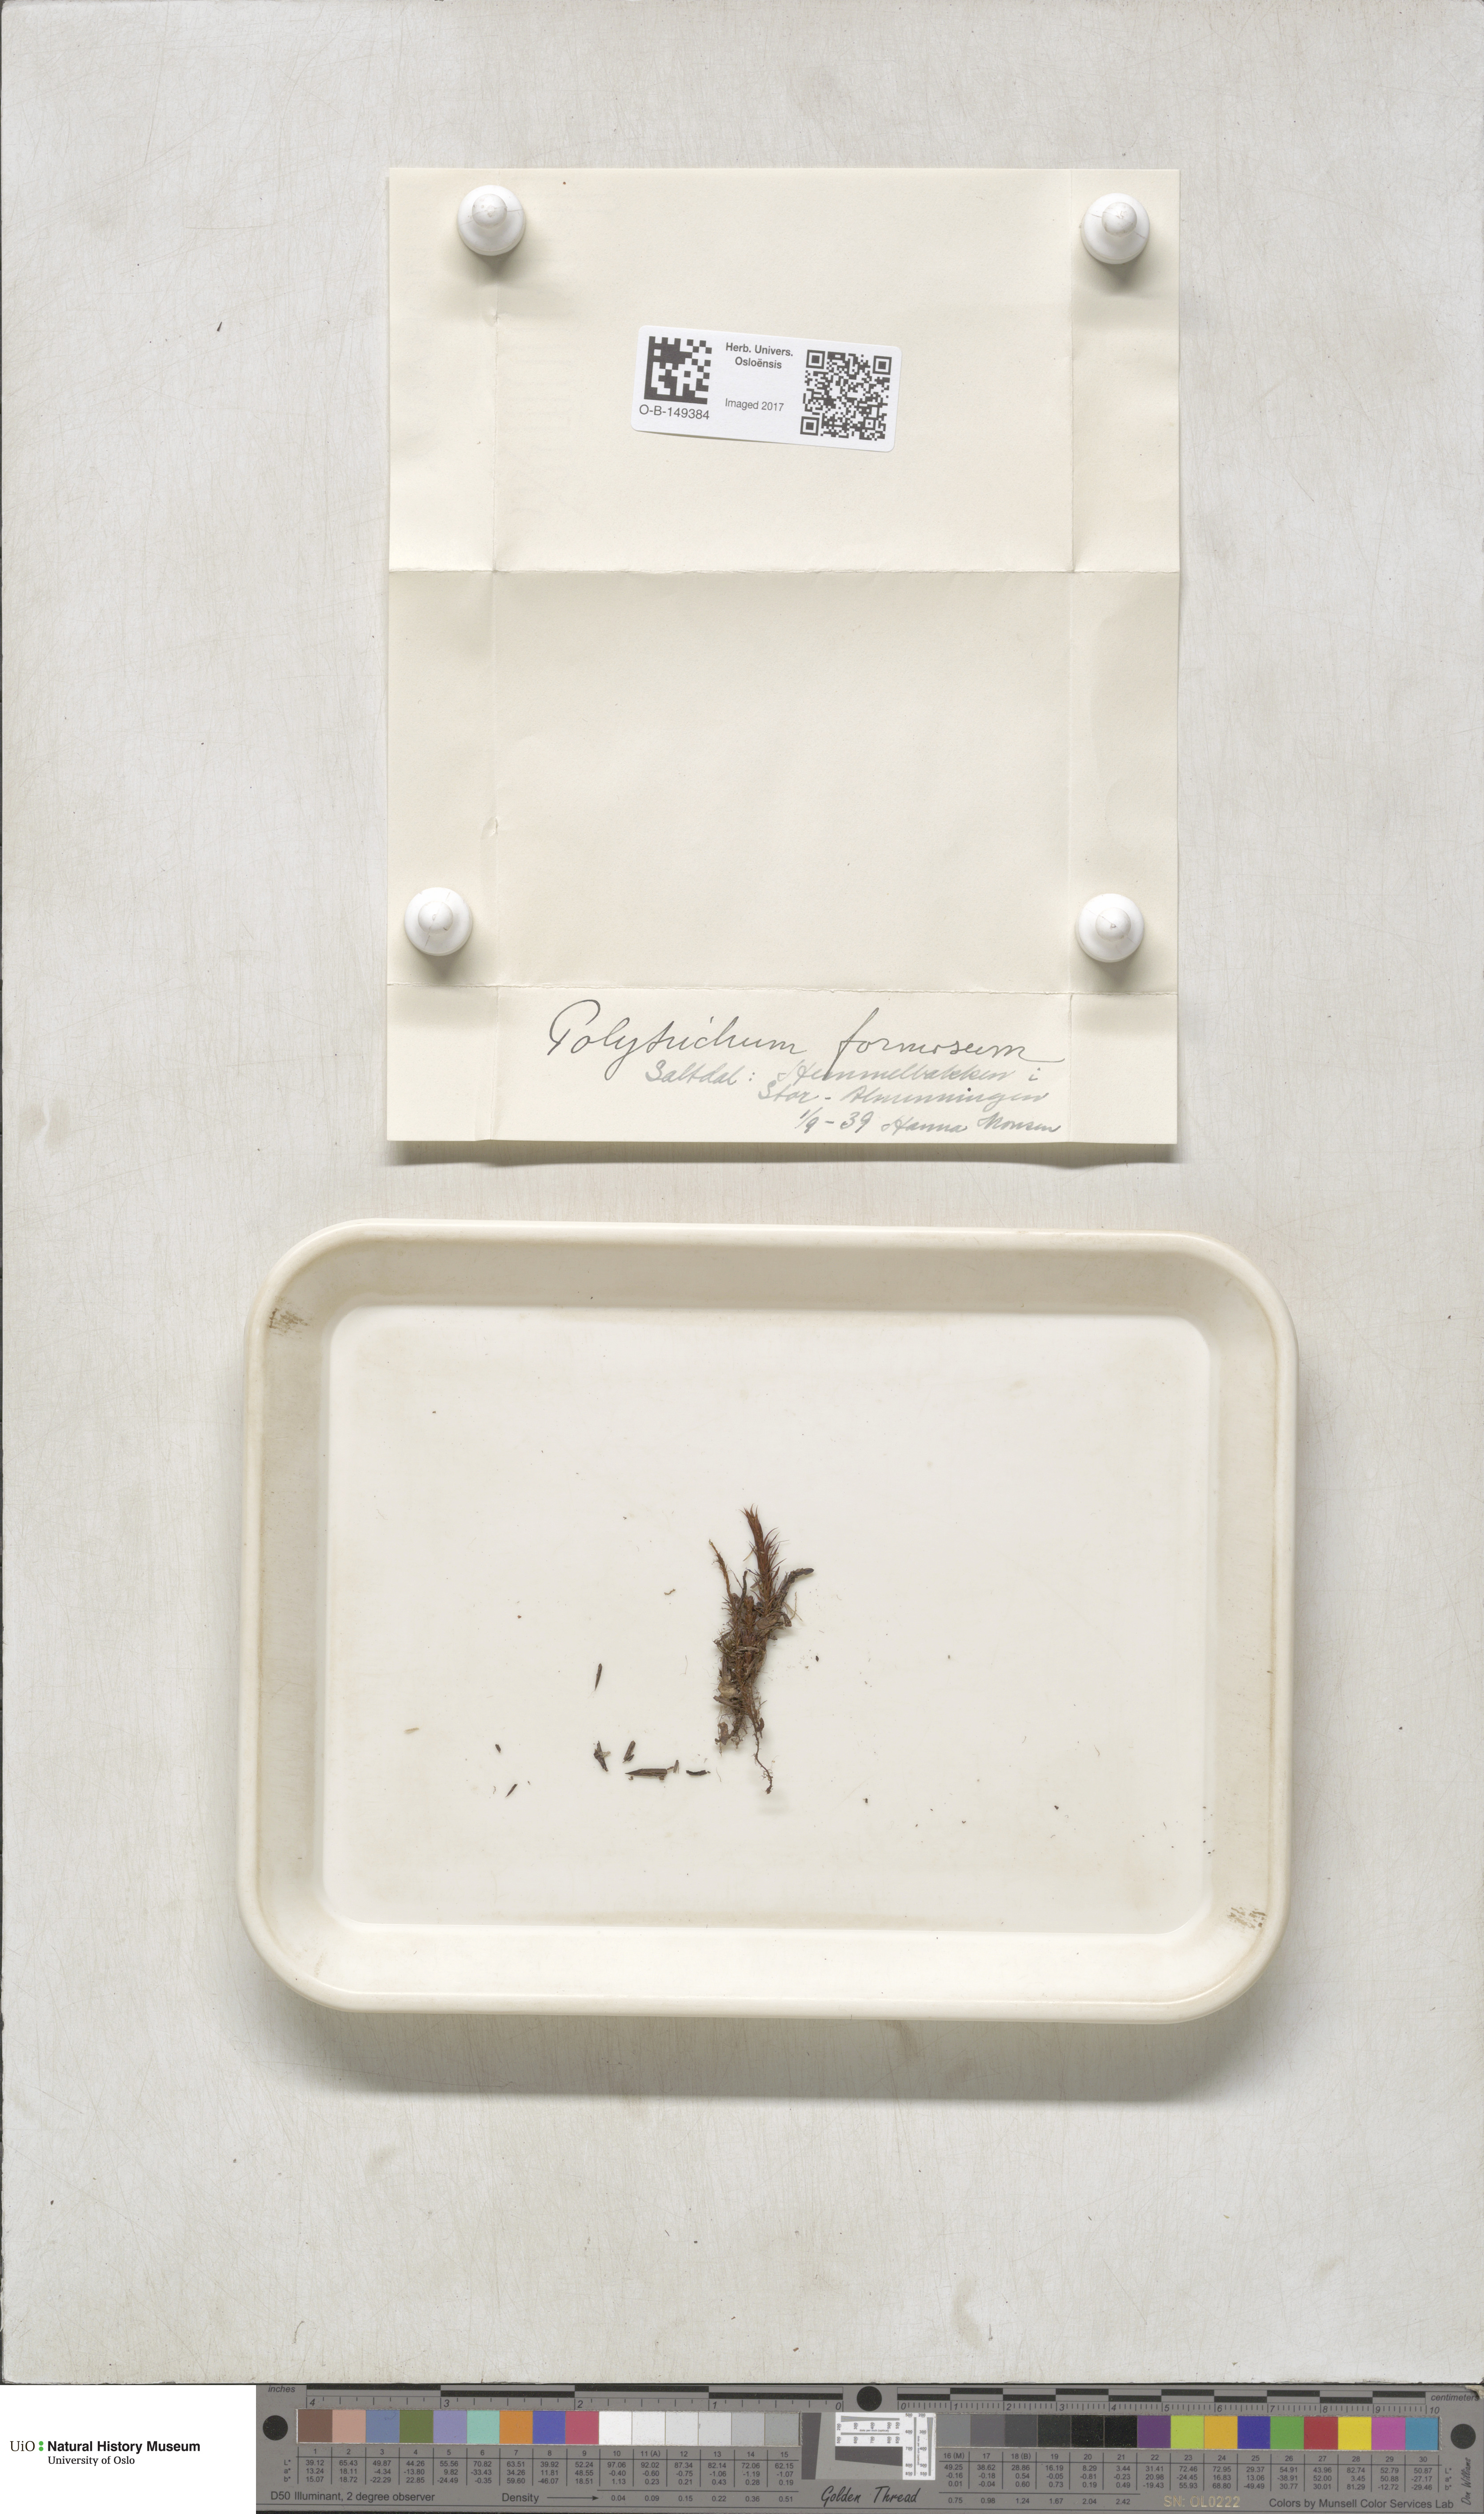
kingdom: Plantae
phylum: Bryophyta
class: Polytrichopsida
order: Polytrichales
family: Polytrichaceae
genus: Polytrichum
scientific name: Polytrichum formosum
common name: Bank haircap moss
